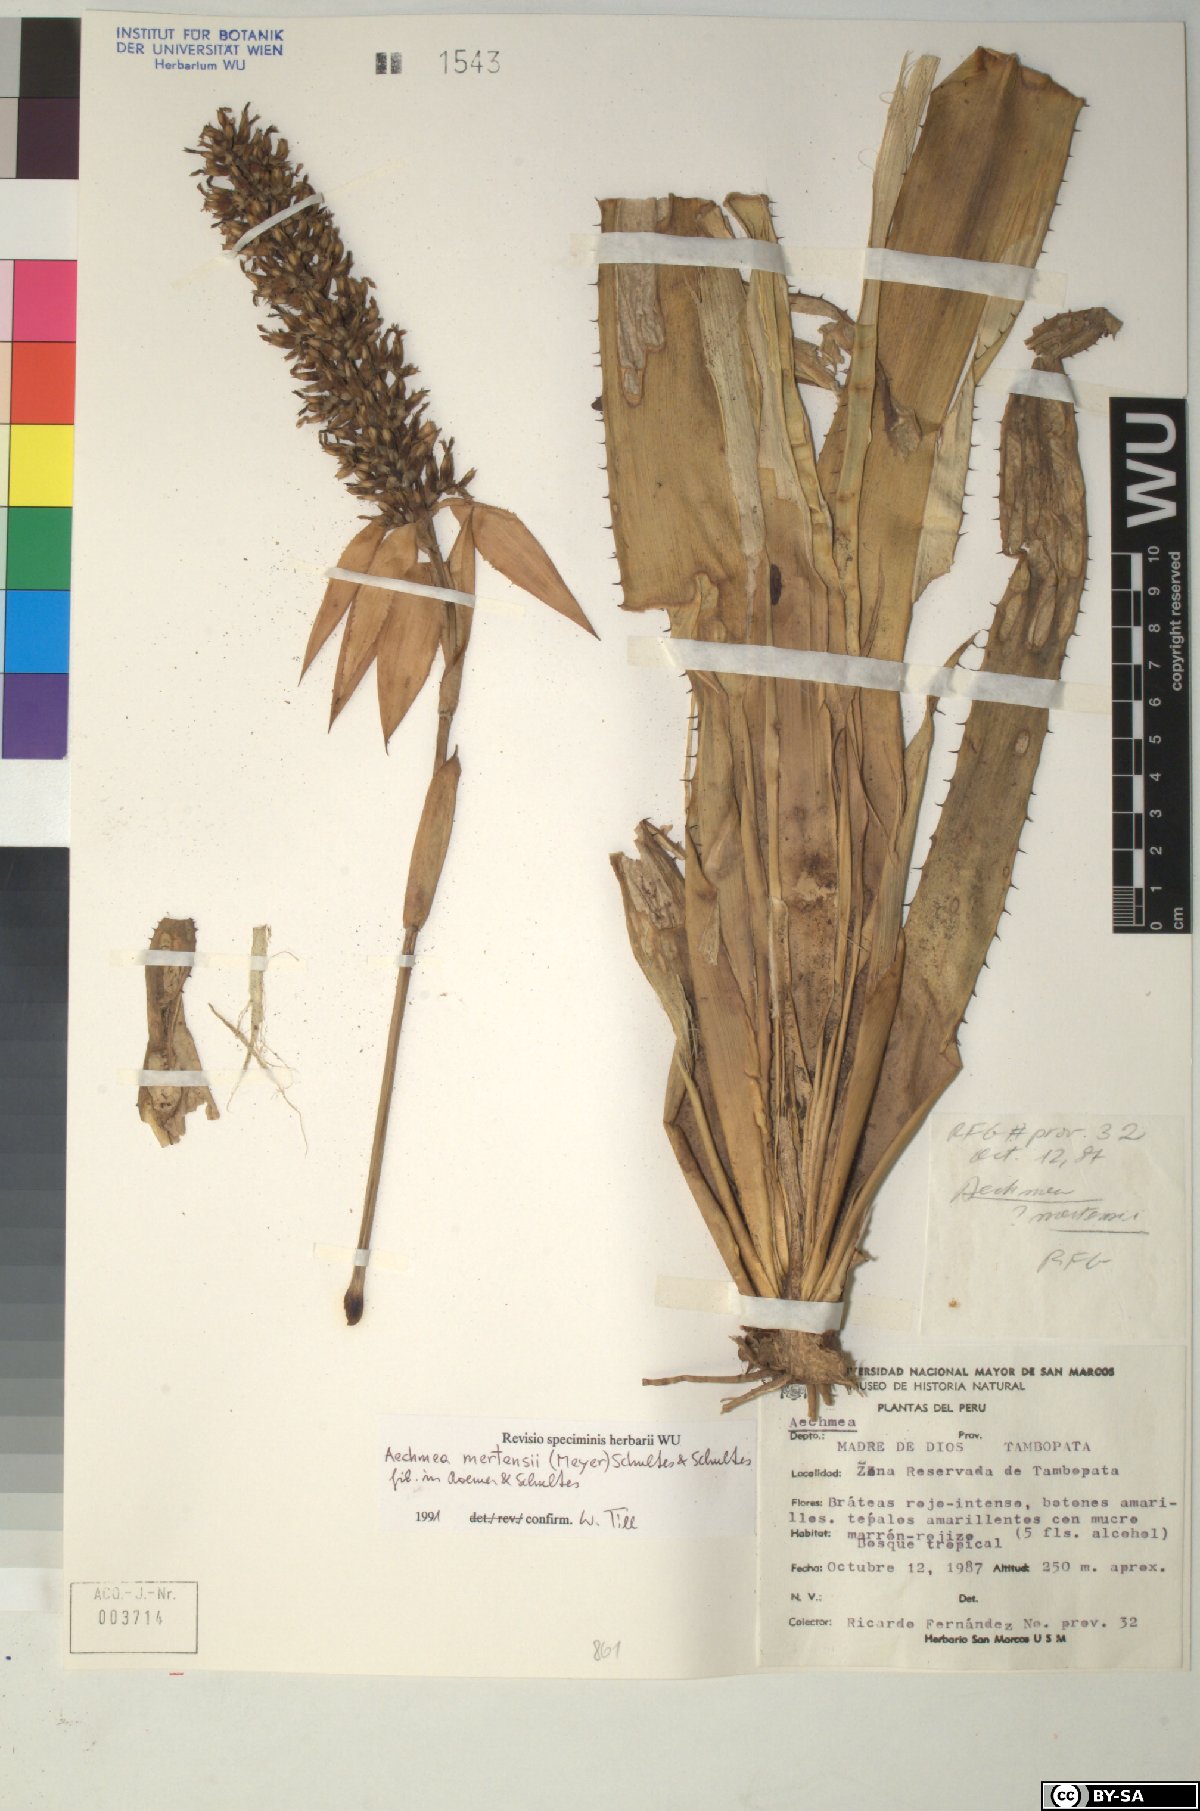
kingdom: Plantae
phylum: Tracheophyta
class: Liliopsida
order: Poales
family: Bromeliaceae
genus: Aechmea
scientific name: Aechmea
